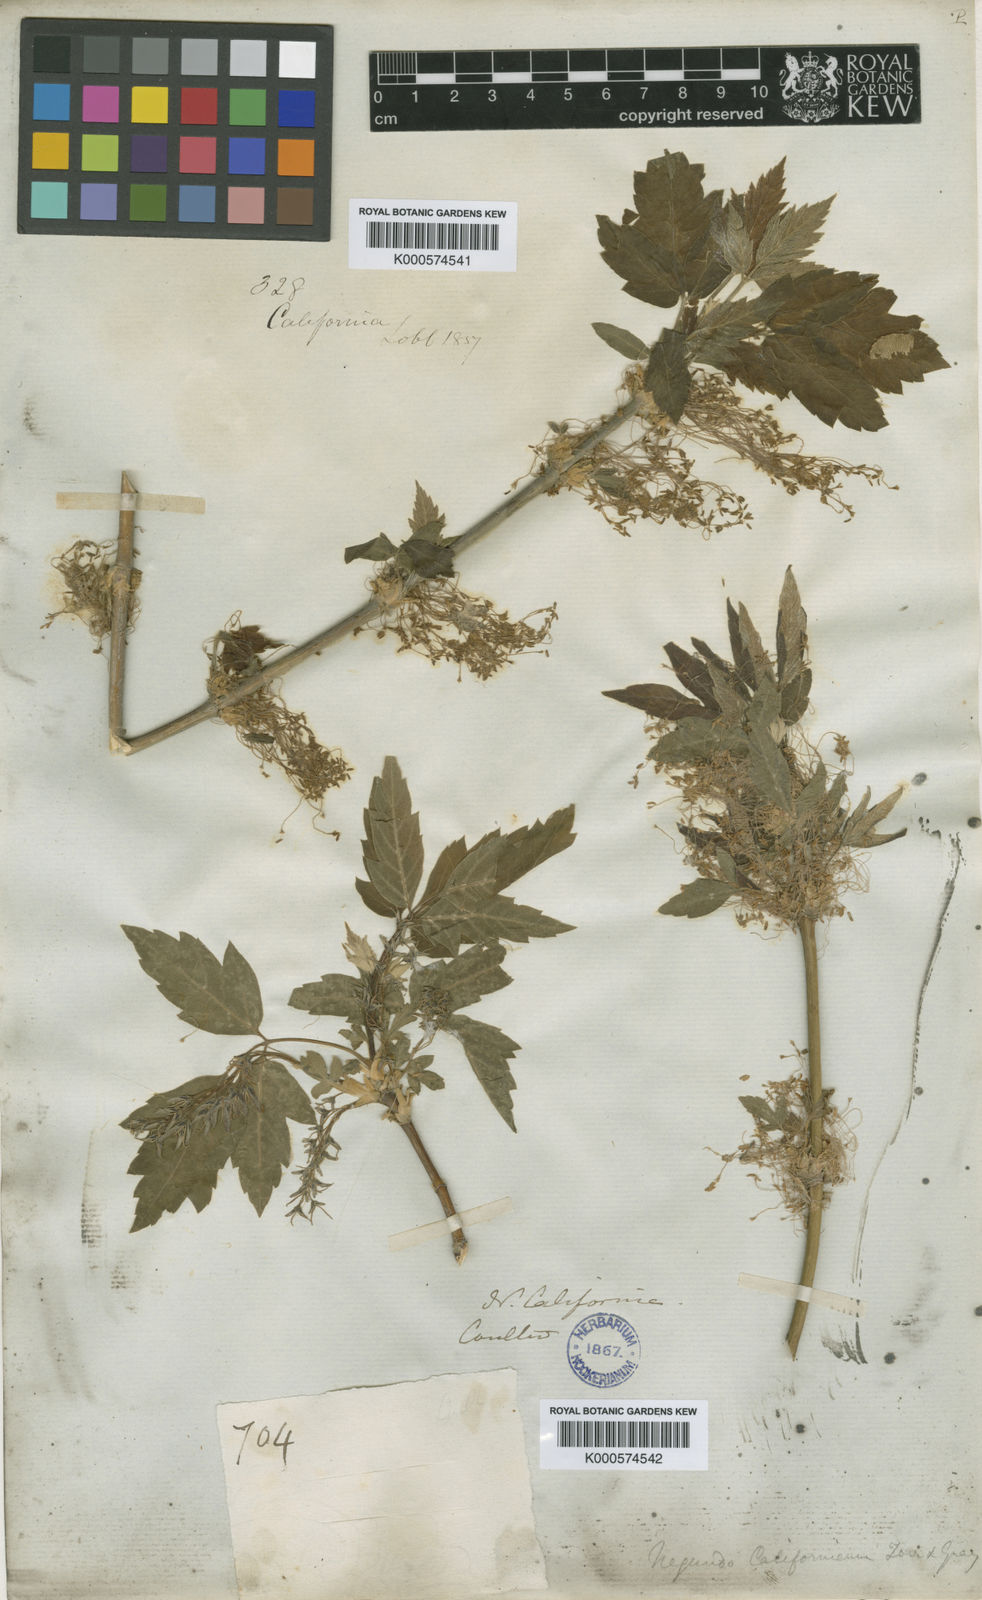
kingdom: Plantae
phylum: Tracheophyta
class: Magnoliopsida
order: Sapindales
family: Sapindaceae
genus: Acer
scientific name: Acer negundo
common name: Ashleaf maple
